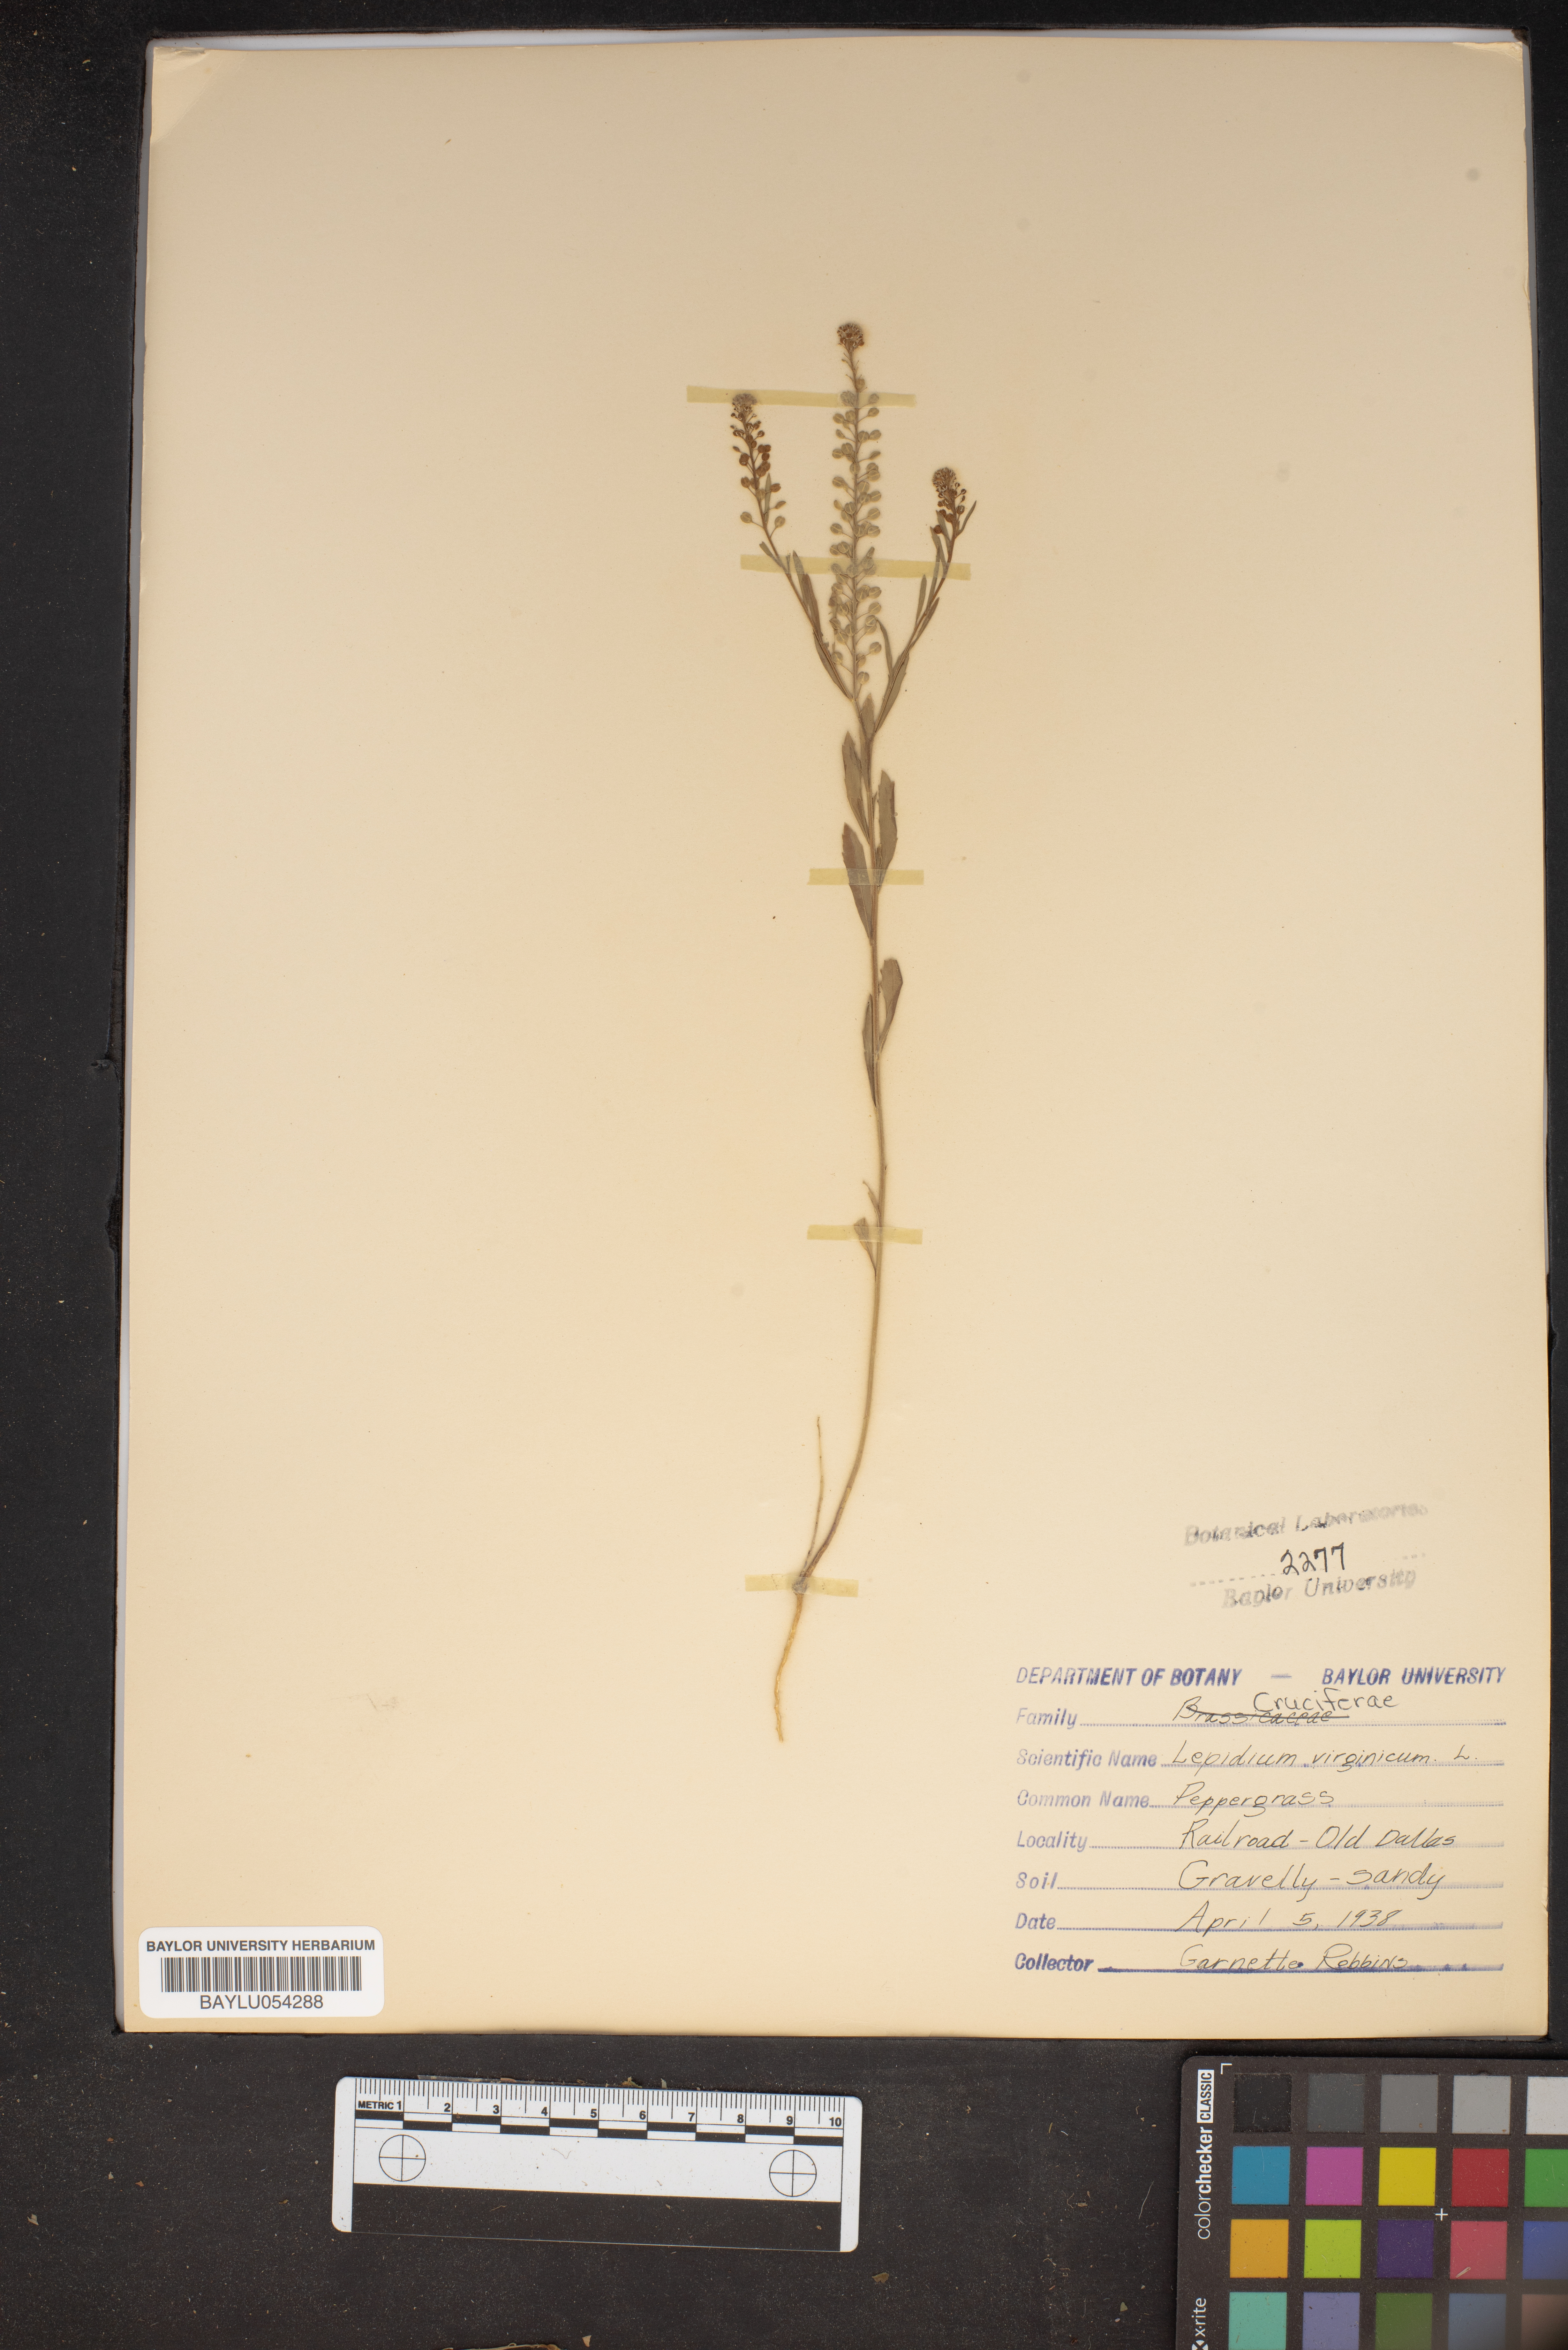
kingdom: Plantae
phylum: Tracheophyta
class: Magnoliopsida
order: Brassicales
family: Brassicaceae
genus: Lepidium
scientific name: Lepidium virginicum
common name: Least pepperwort
